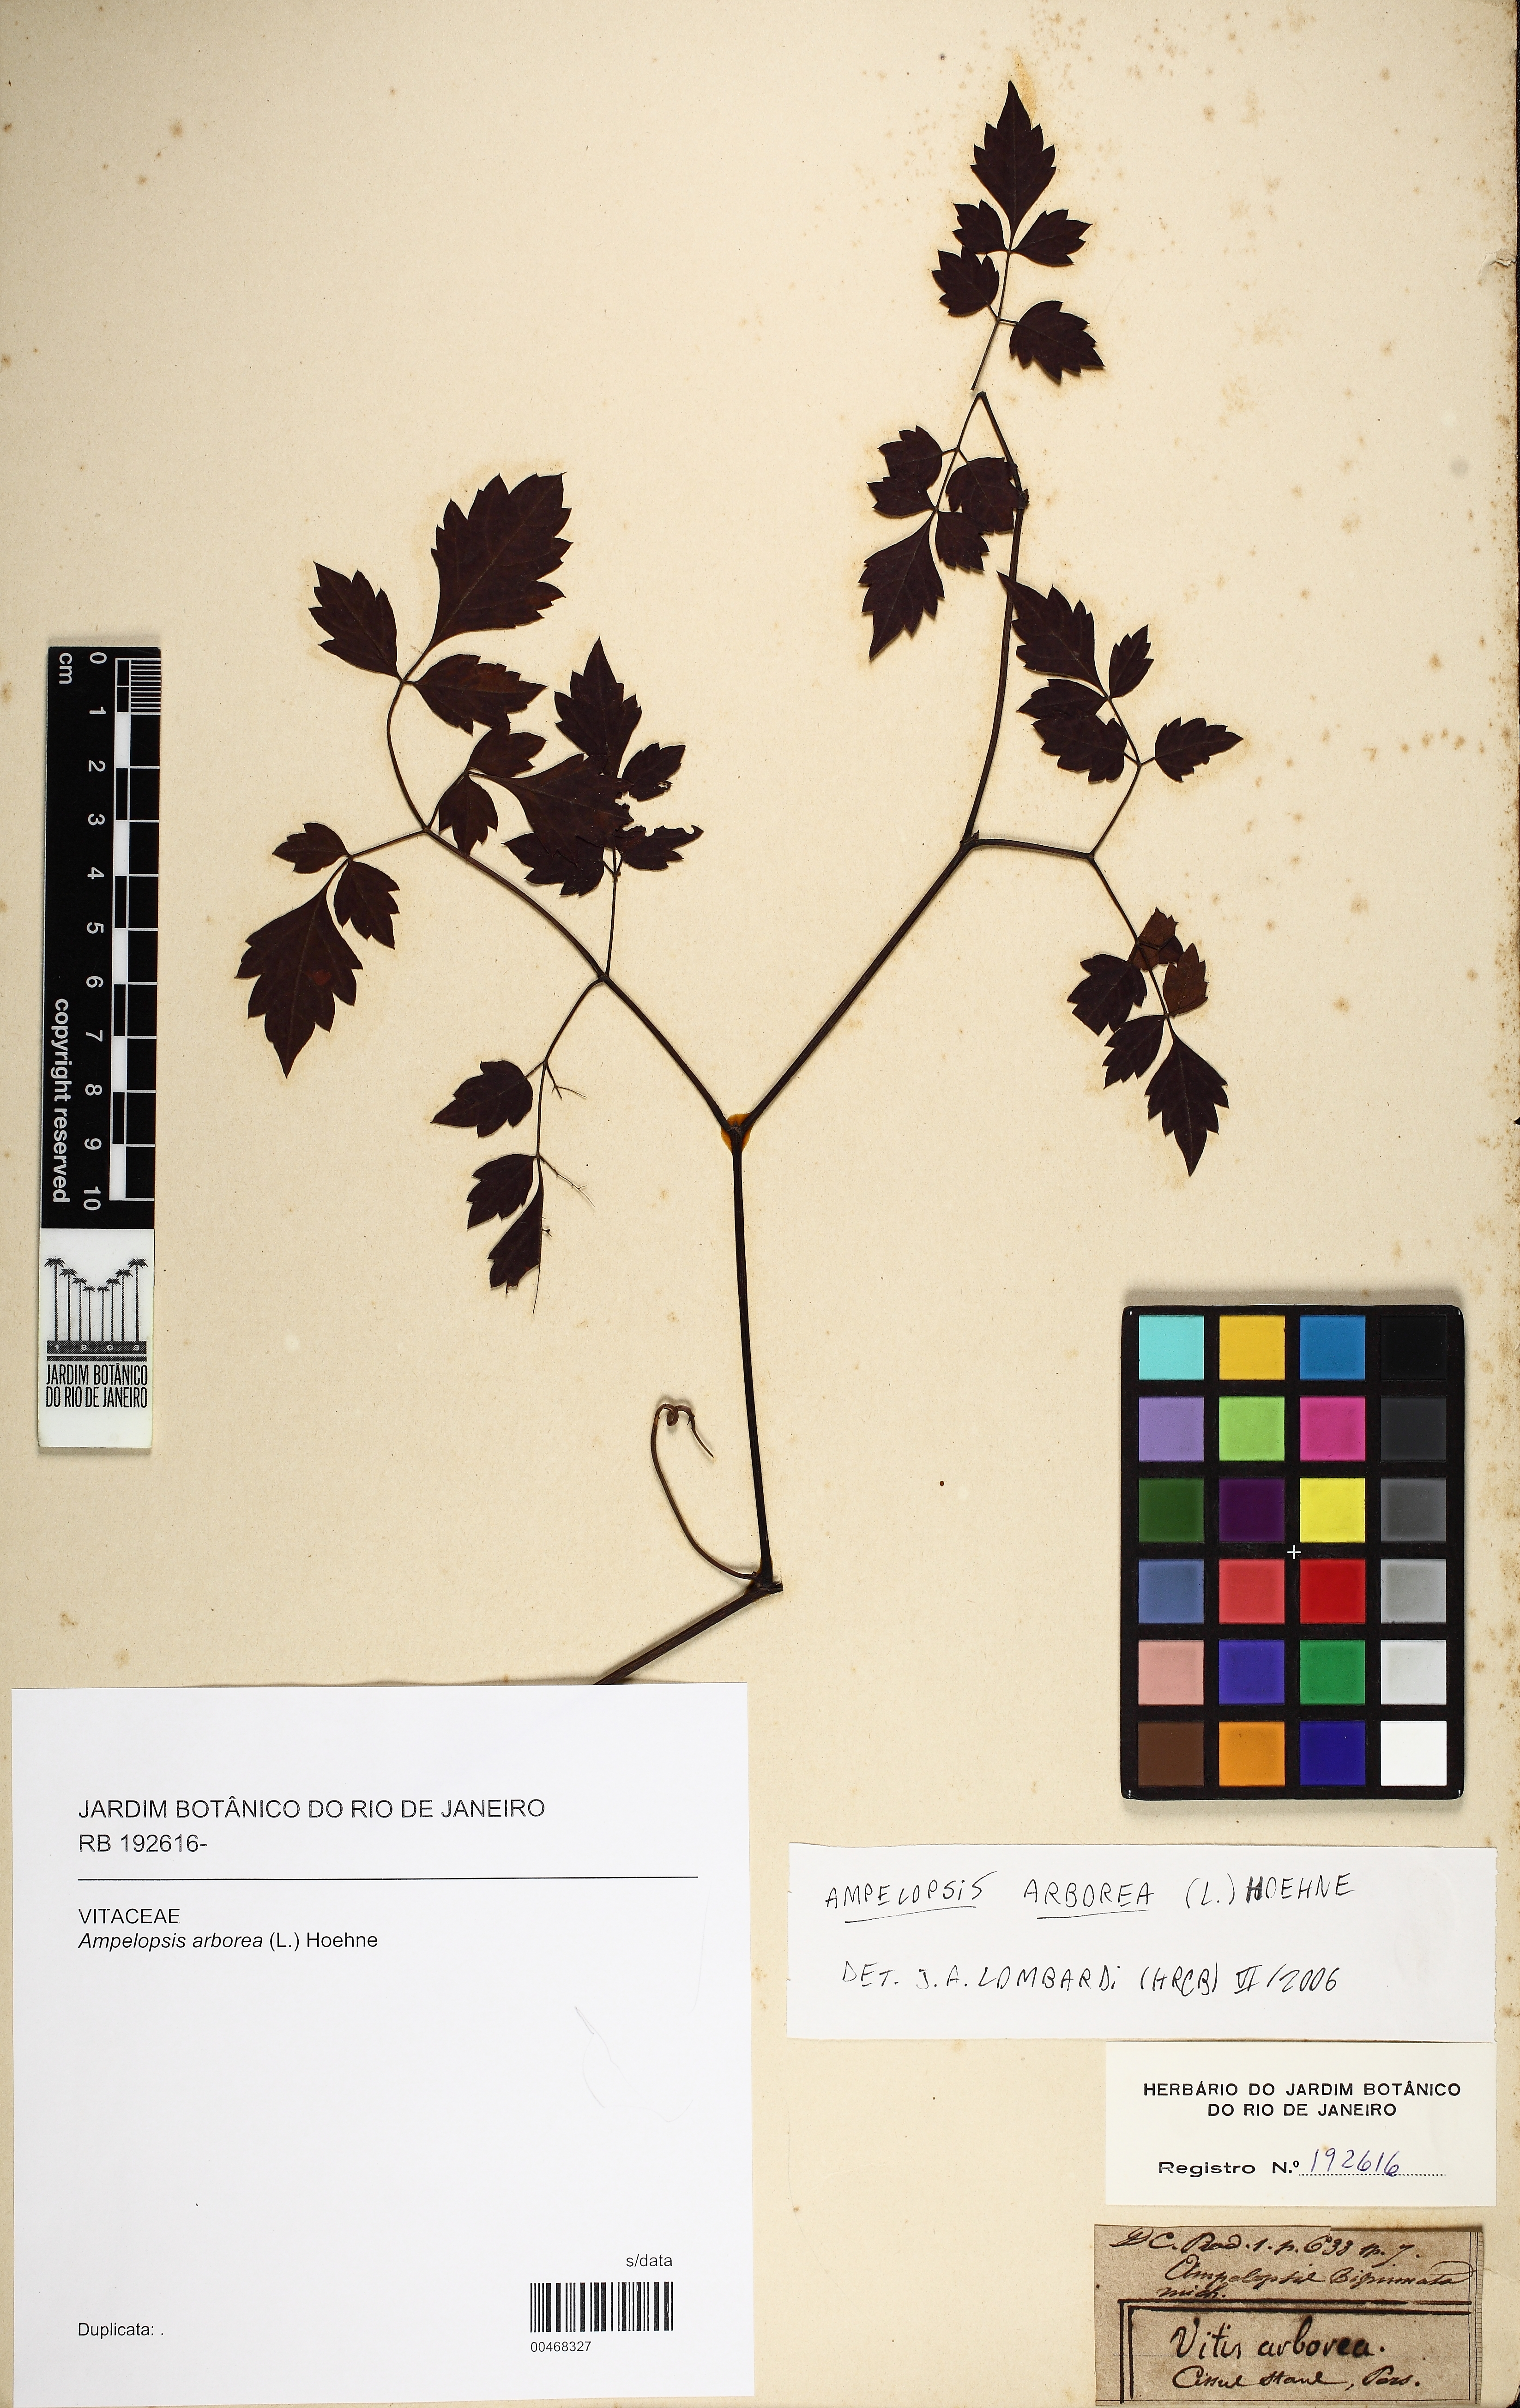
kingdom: Plantae
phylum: Tracheophyta
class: Magnoliopsida
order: Vitales
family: Vitaceae
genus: Nekemias
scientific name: Nekemias arborea
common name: Peppervine
